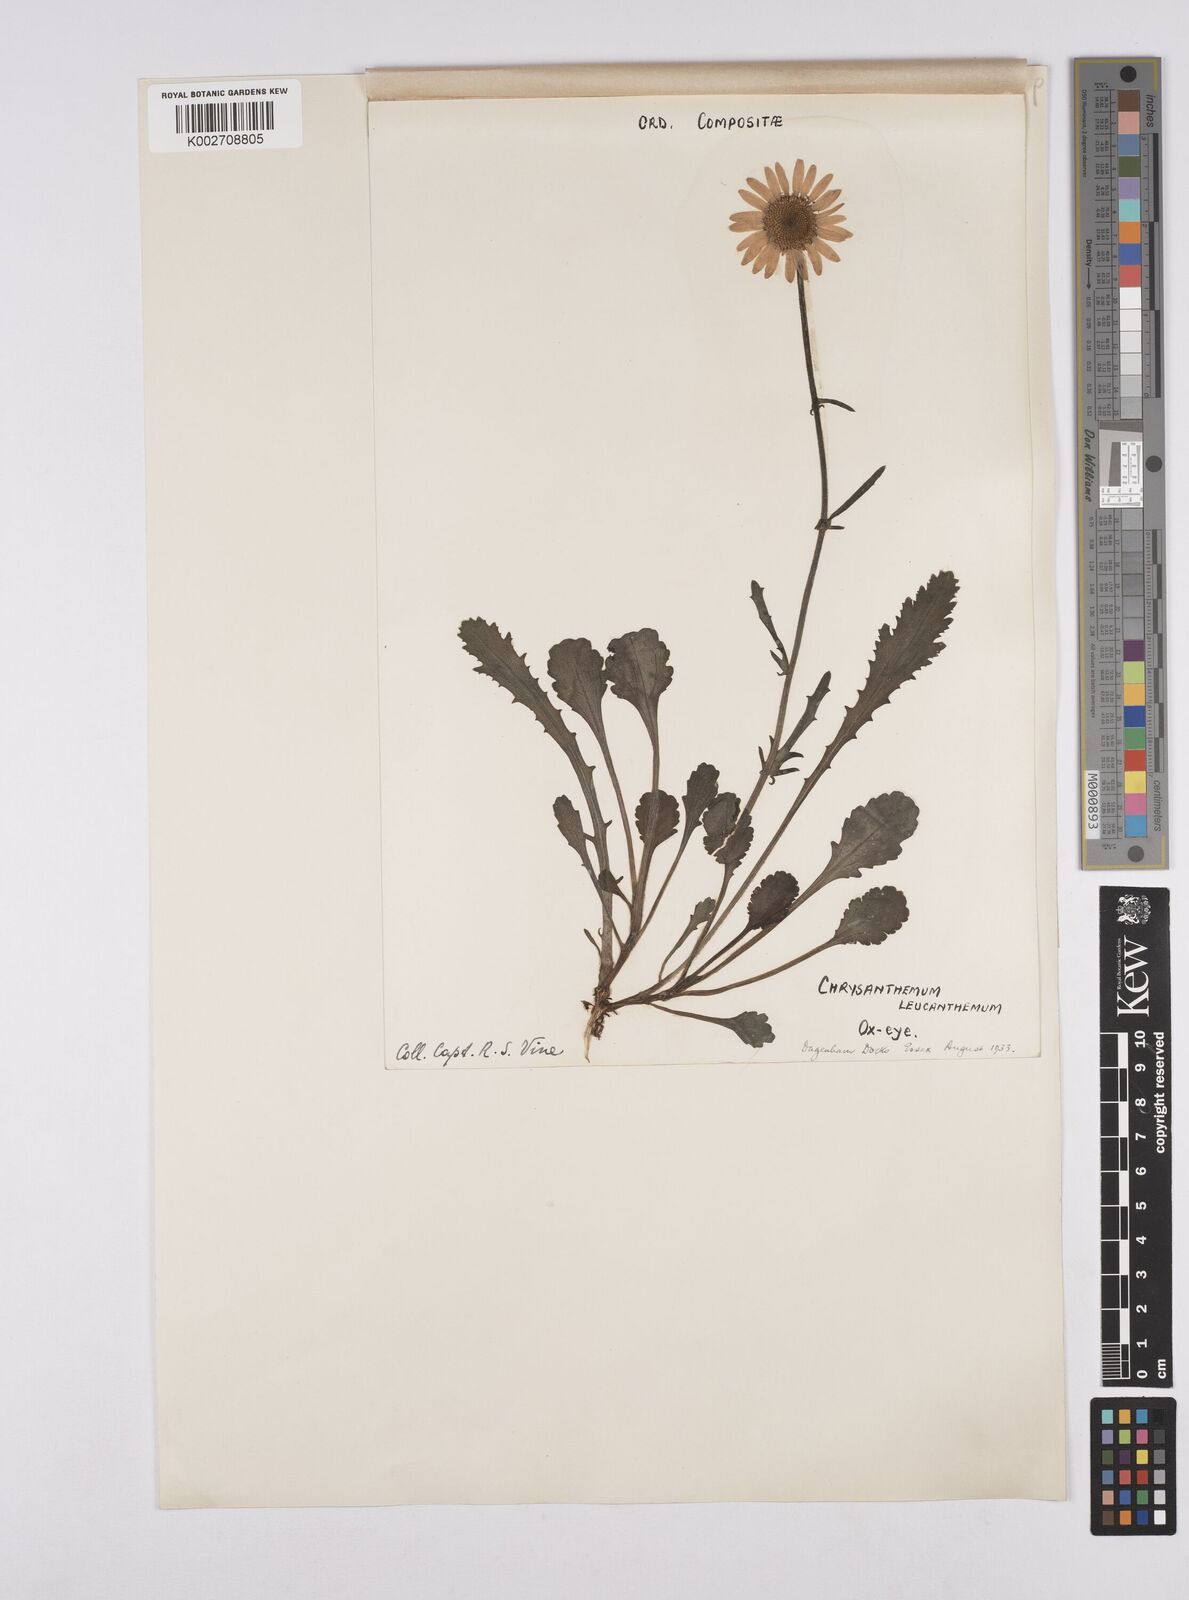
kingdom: Plantae
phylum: Tracheophyta
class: Magnoliopsida
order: Asterales
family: Asteraceae
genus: Leucanthemum
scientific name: Leucanthemum vulgare
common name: Oxeye daisy
